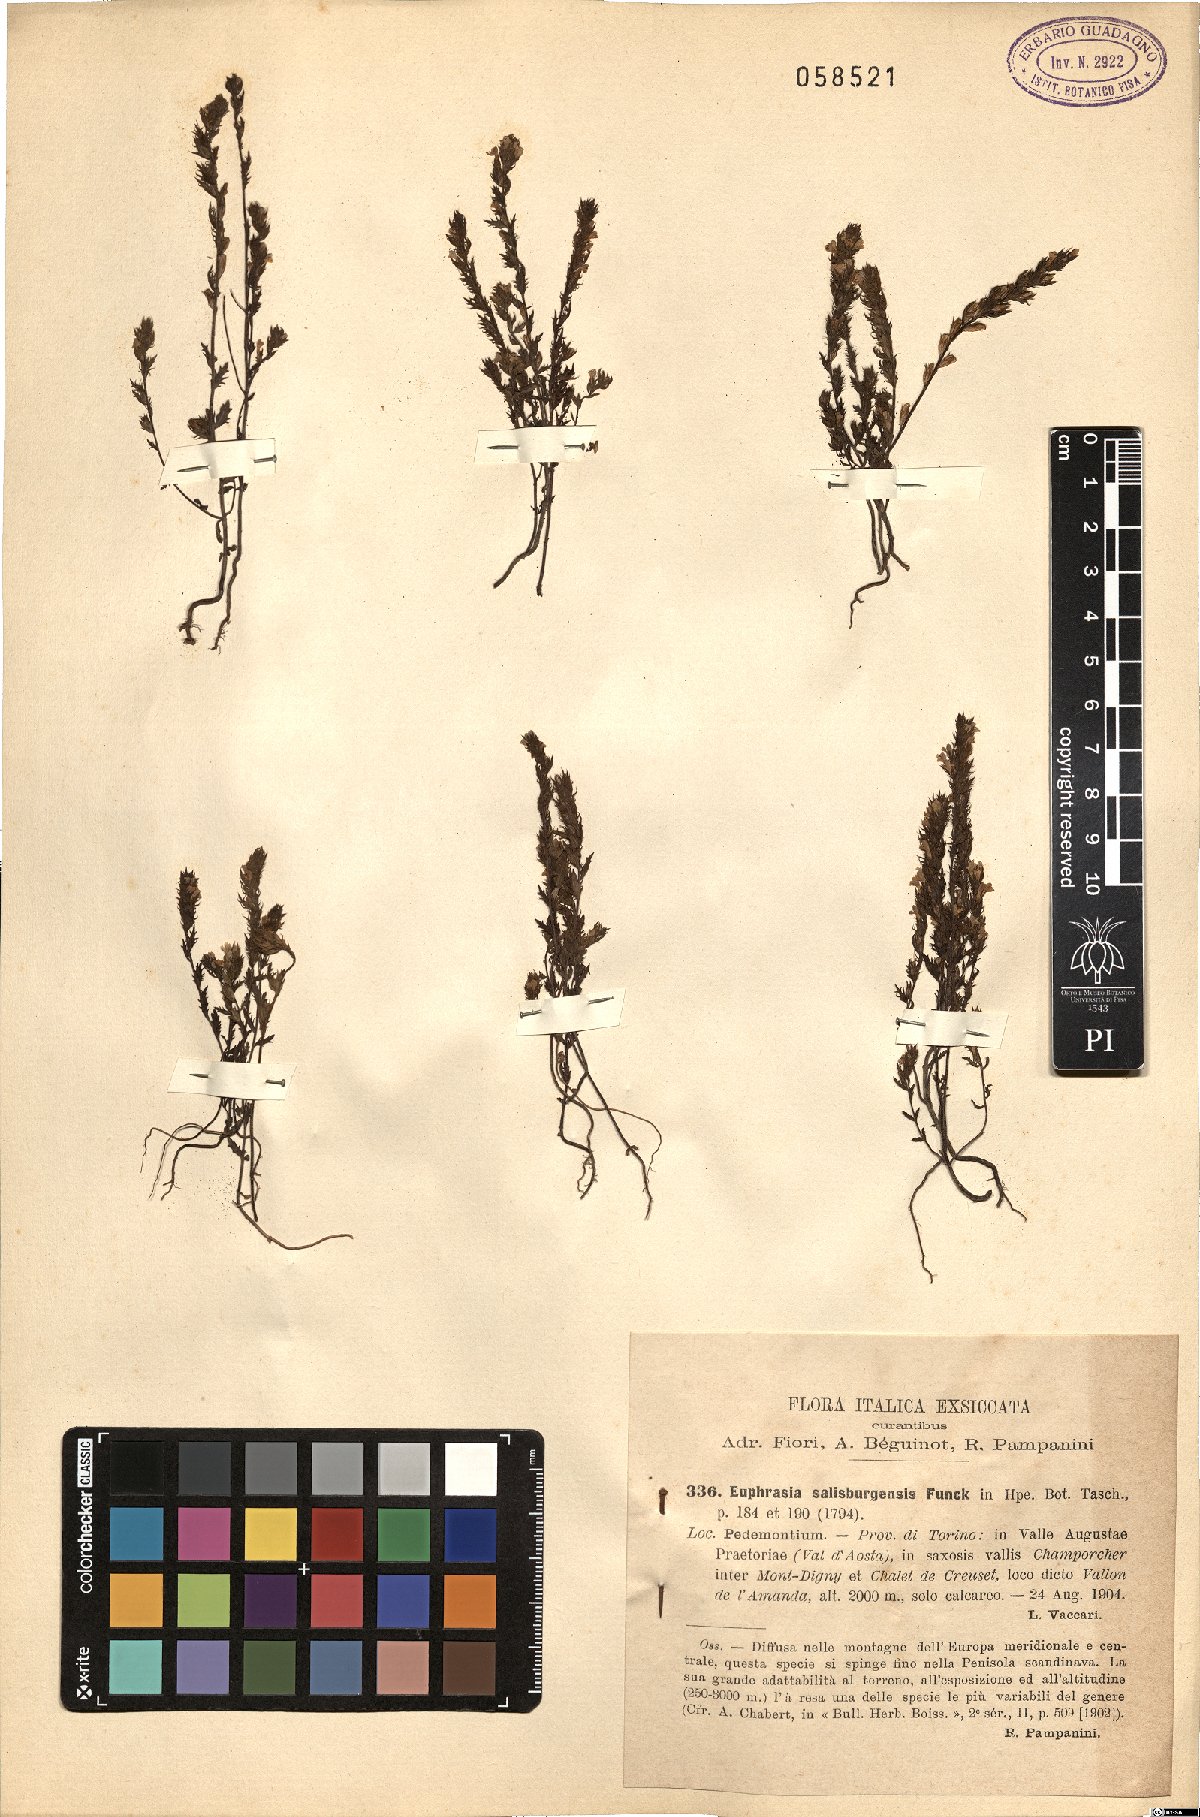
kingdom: Plantae
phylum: Tracheophyta
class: Magnoliopsida
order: Lamiales
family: Orobanchaceae
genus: Euphrasia
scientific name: Euphrasia salisburgensis
